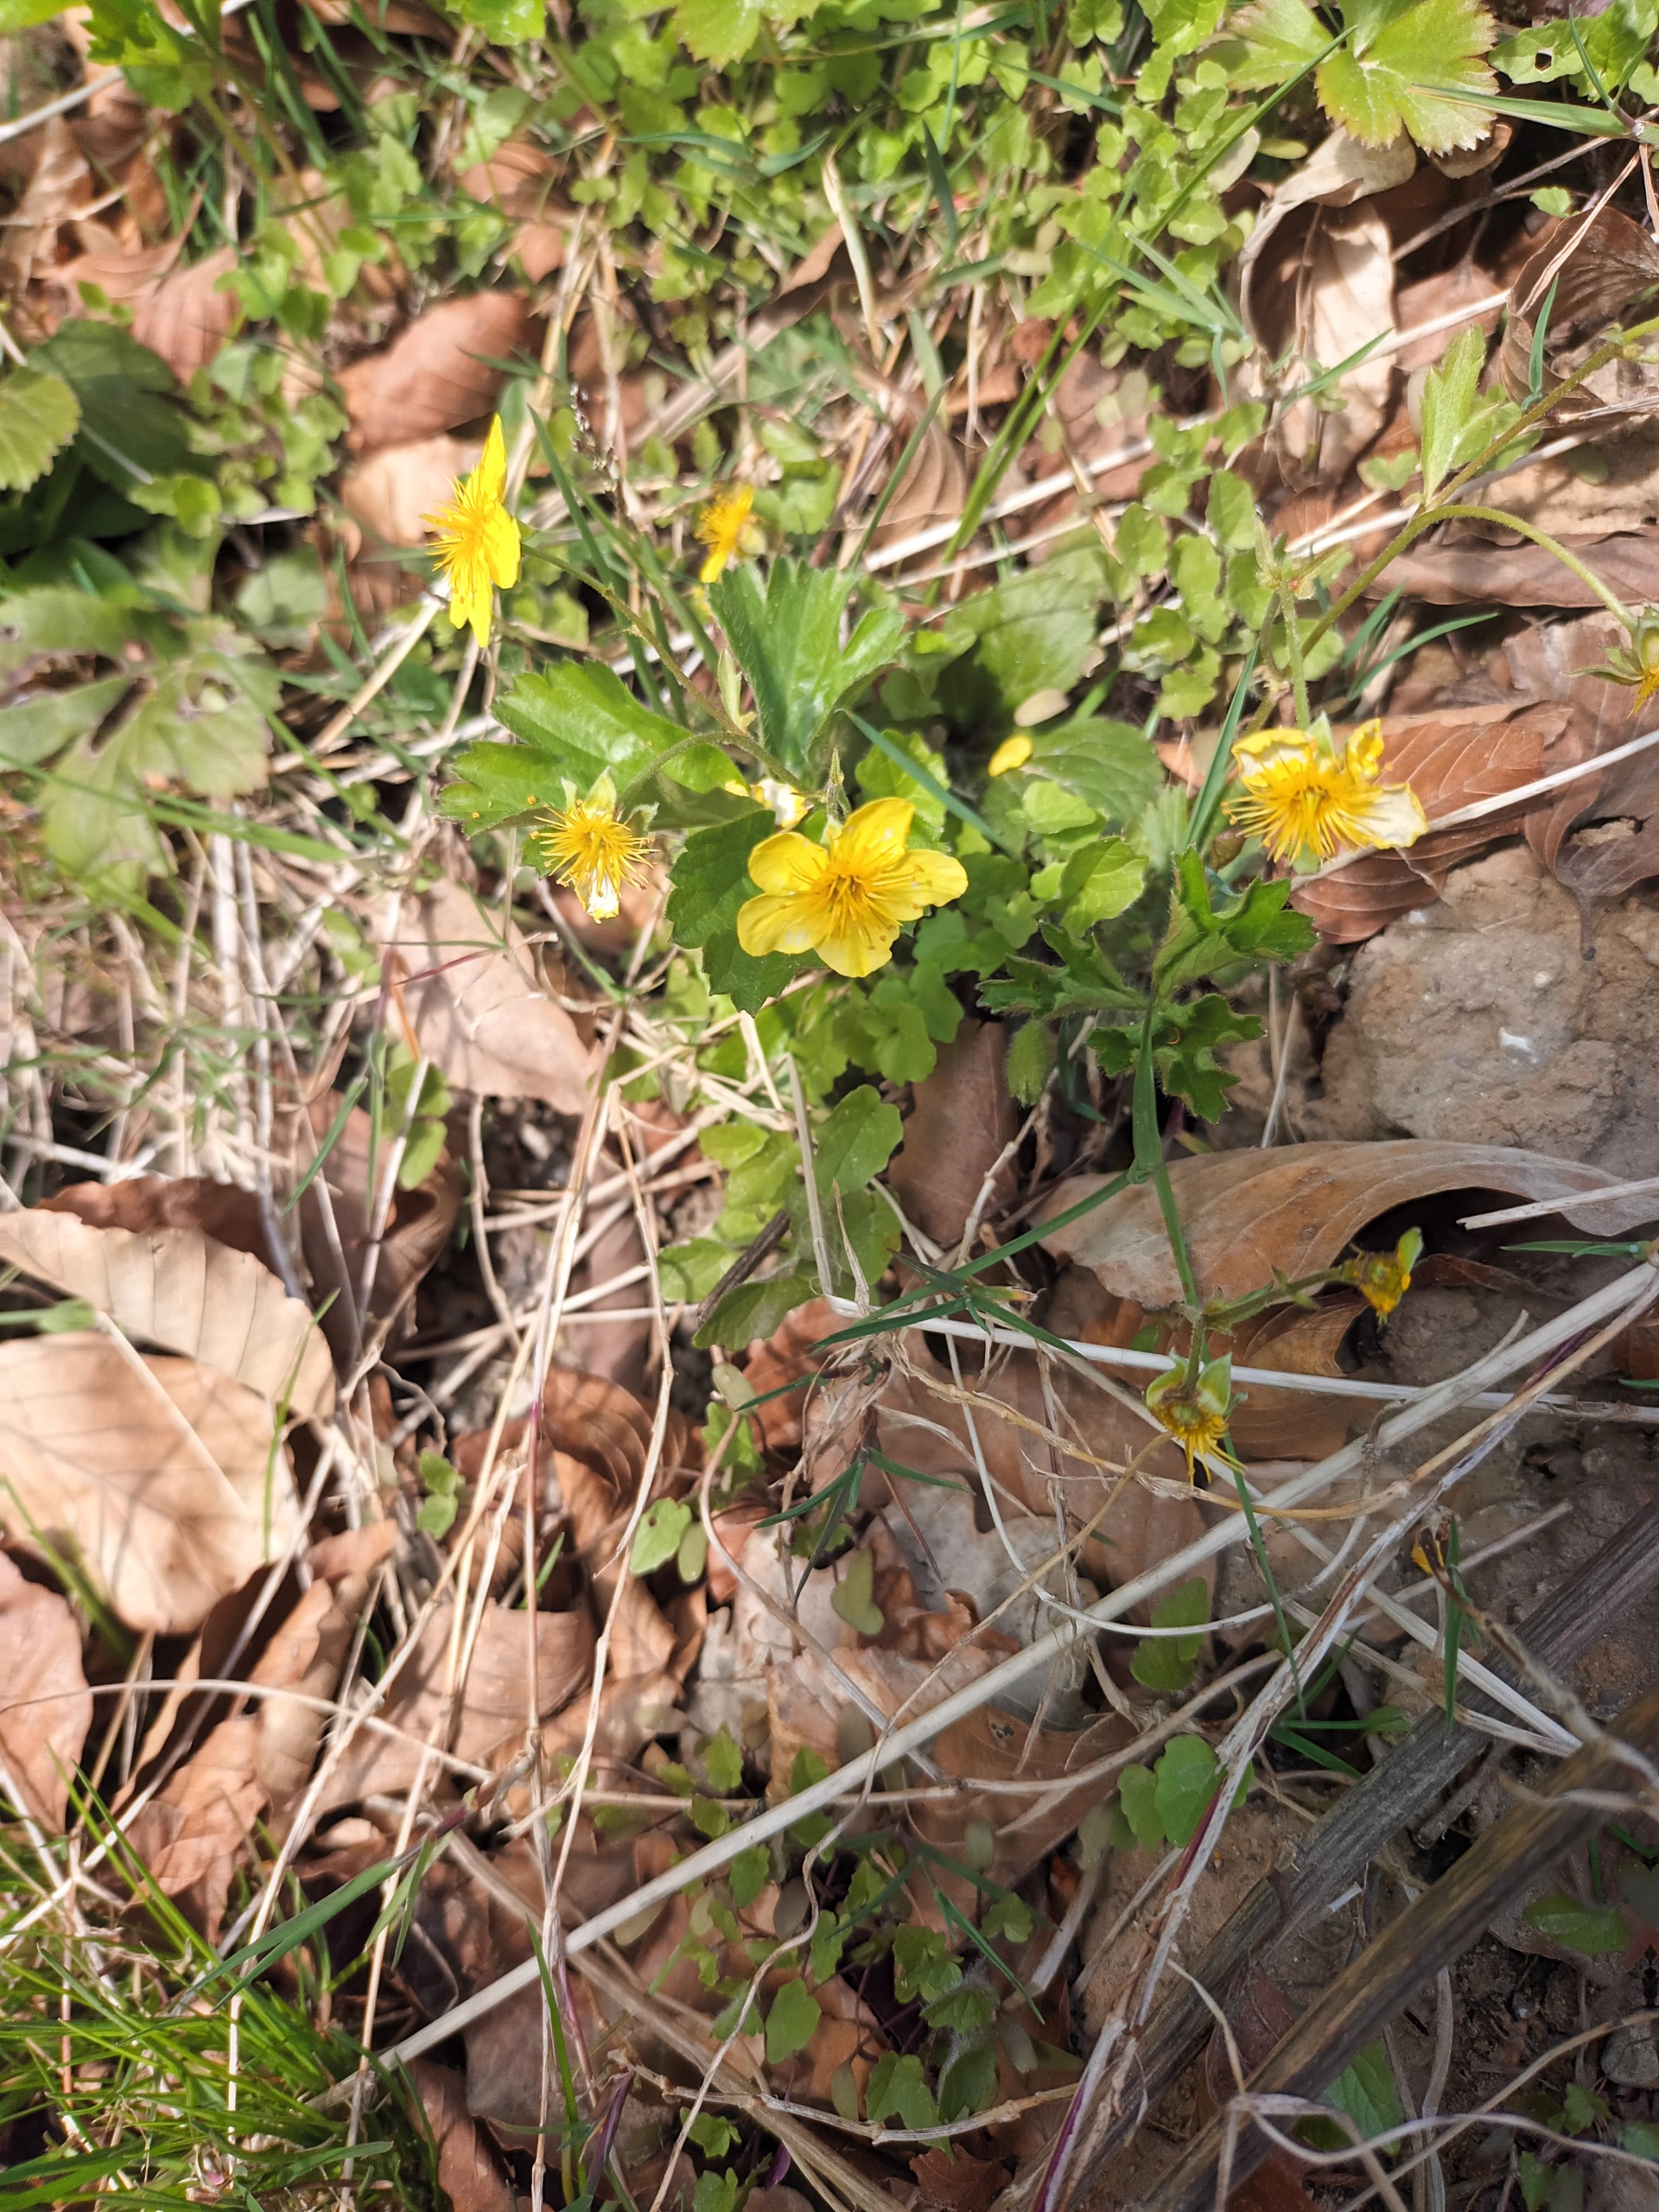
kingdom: Plantae
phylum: Tracheophyta
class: Magnoliopsida
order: Rosales
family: Rosaceae
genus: Geum
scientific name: Geum ternatum
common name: Krybende guldjordbær
